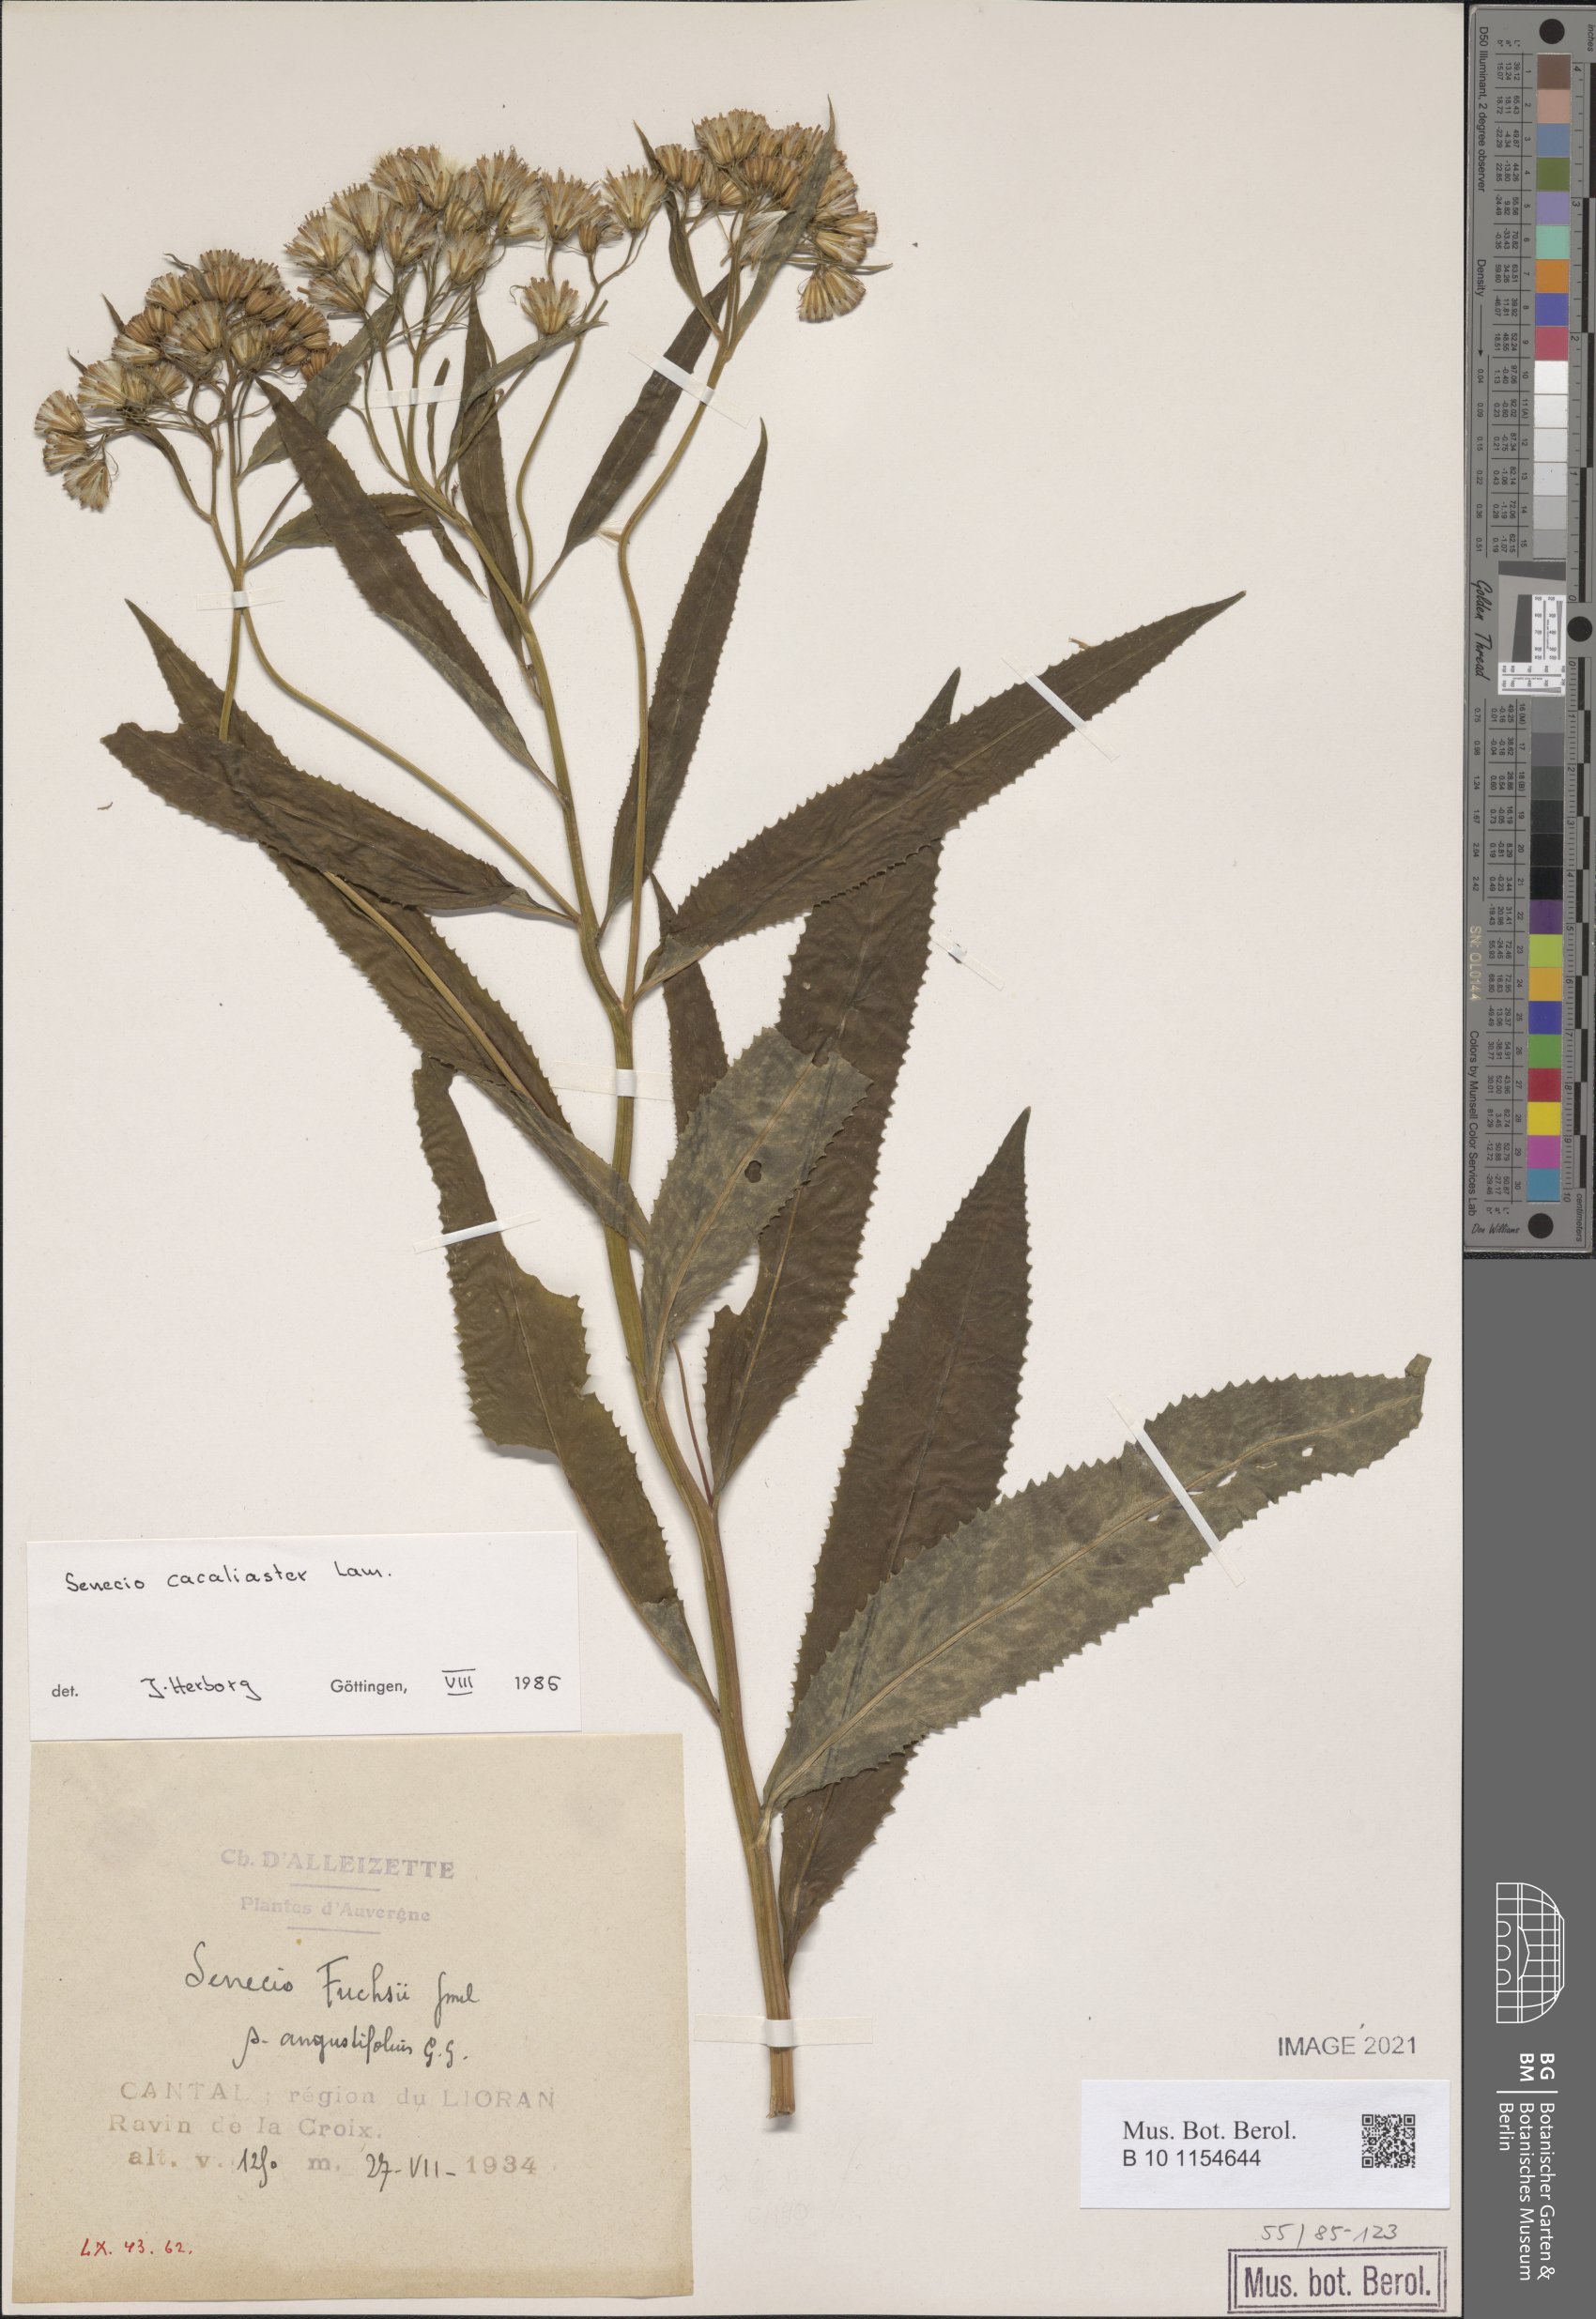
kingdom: Plantae
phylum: Tracheophyta
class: Magnoliopsida
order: Asterales
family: Asteraceae
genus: Senecio
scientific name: Senecio cacaliaster
